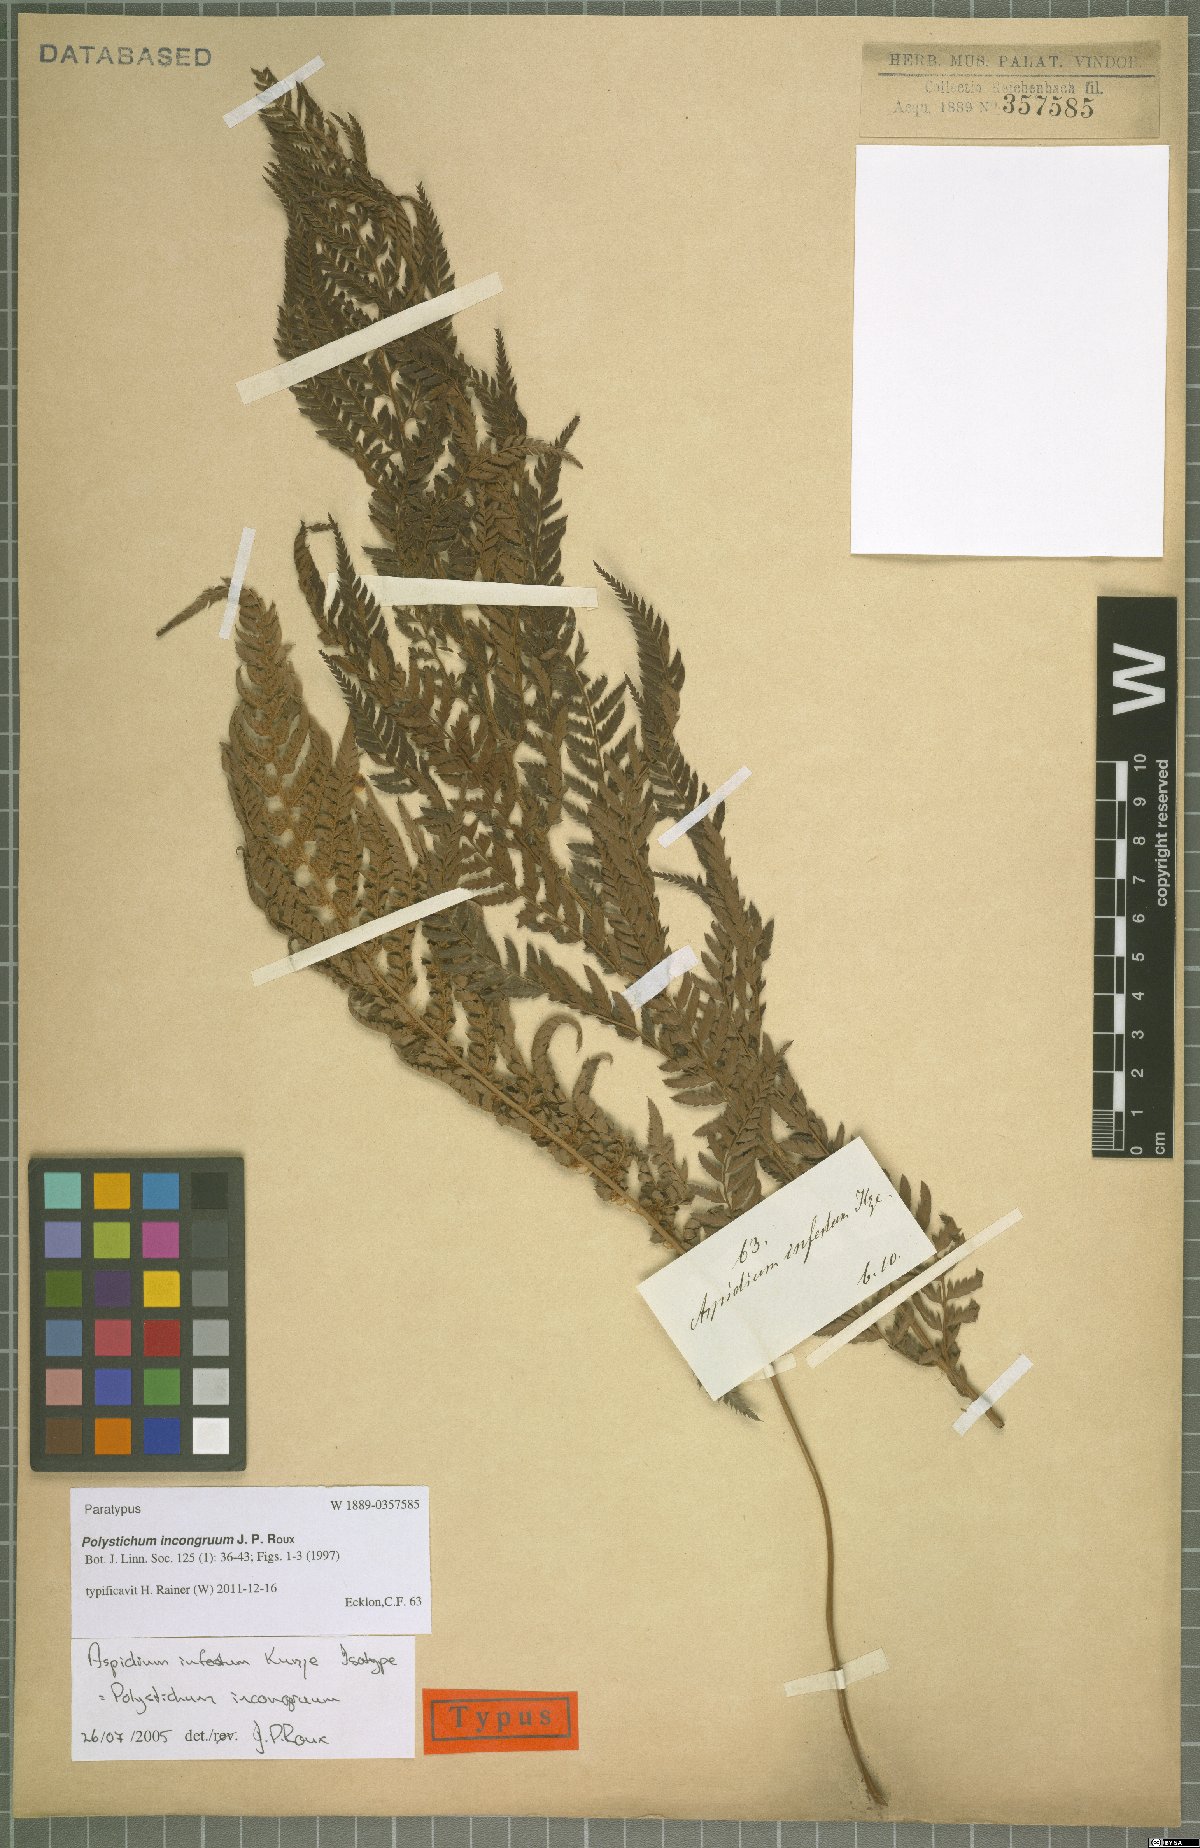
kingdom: Plantae
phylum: Tracheophyta
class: Polypodiopsida
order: Polypodiales
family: Dryopteridaceae
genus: Polystichum
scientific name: Polystichum incongruum
